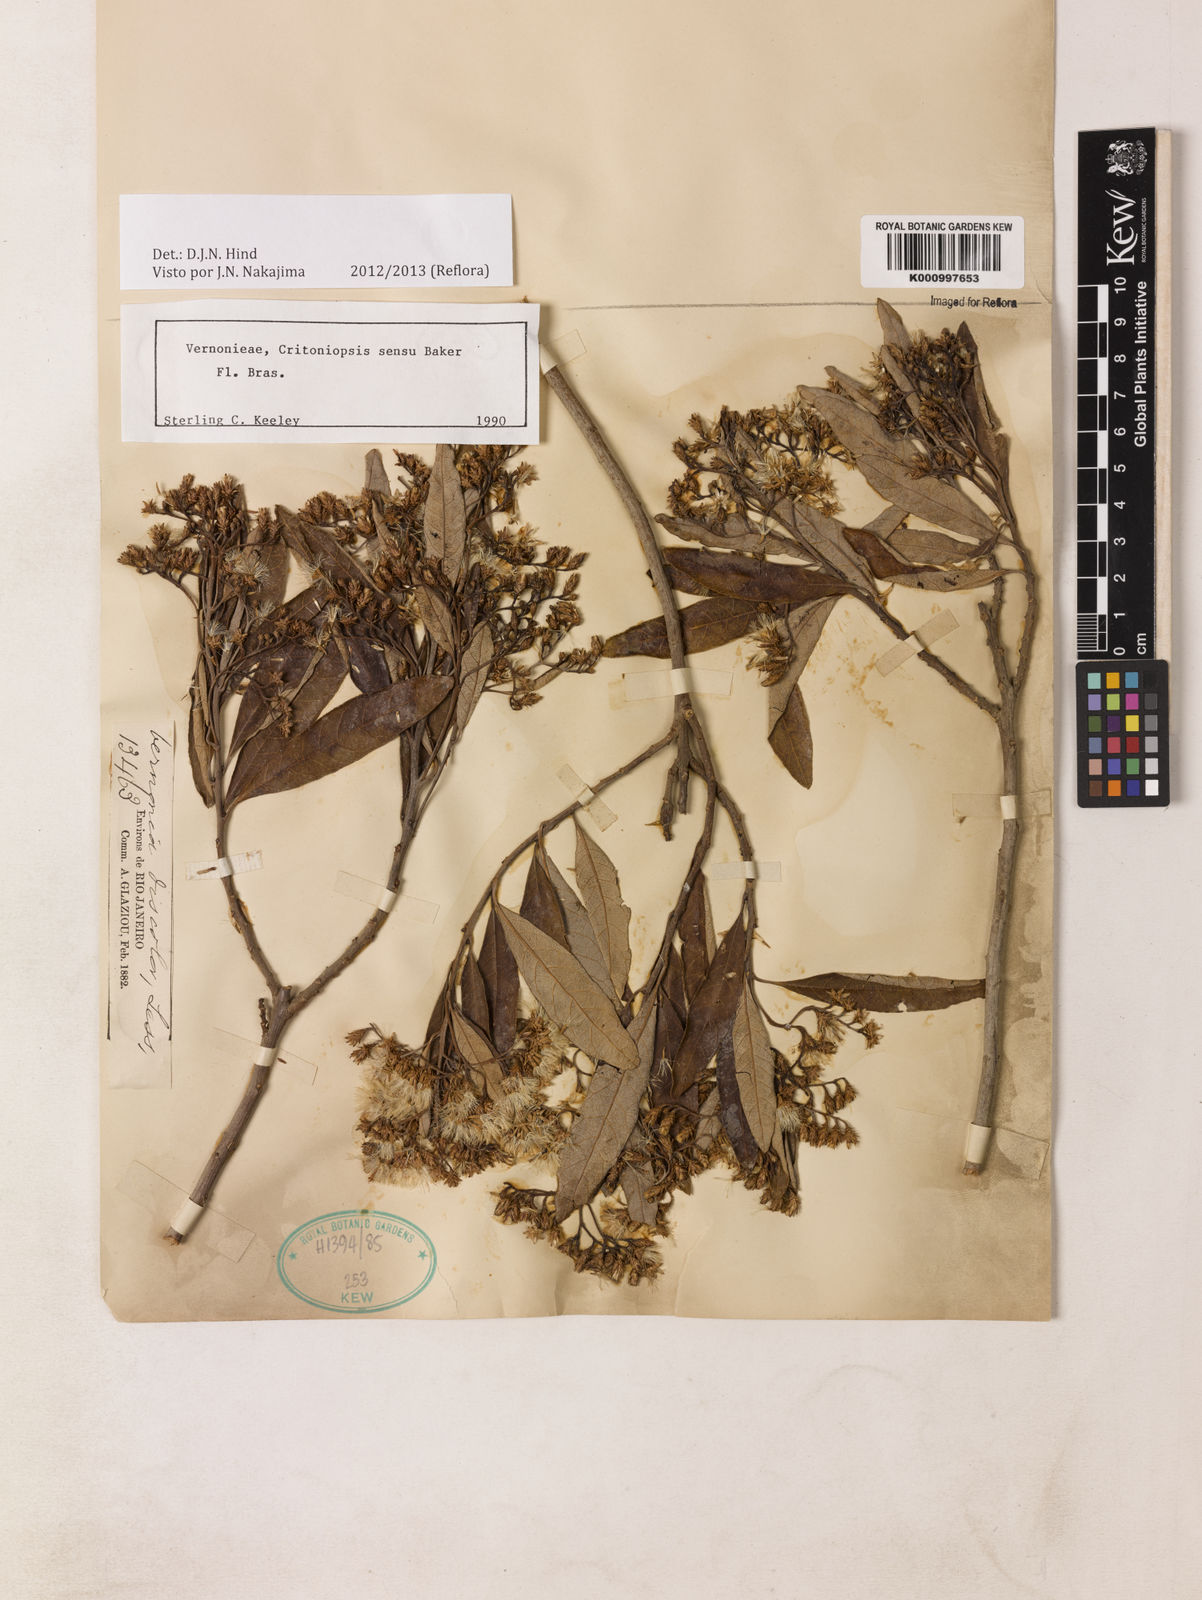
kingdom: Plantae
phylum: Tracheophyta
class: Magnoliopsida
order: Asterales
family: Asteraceae
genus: Vernonanthura
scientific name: Vernonanthura discolor
